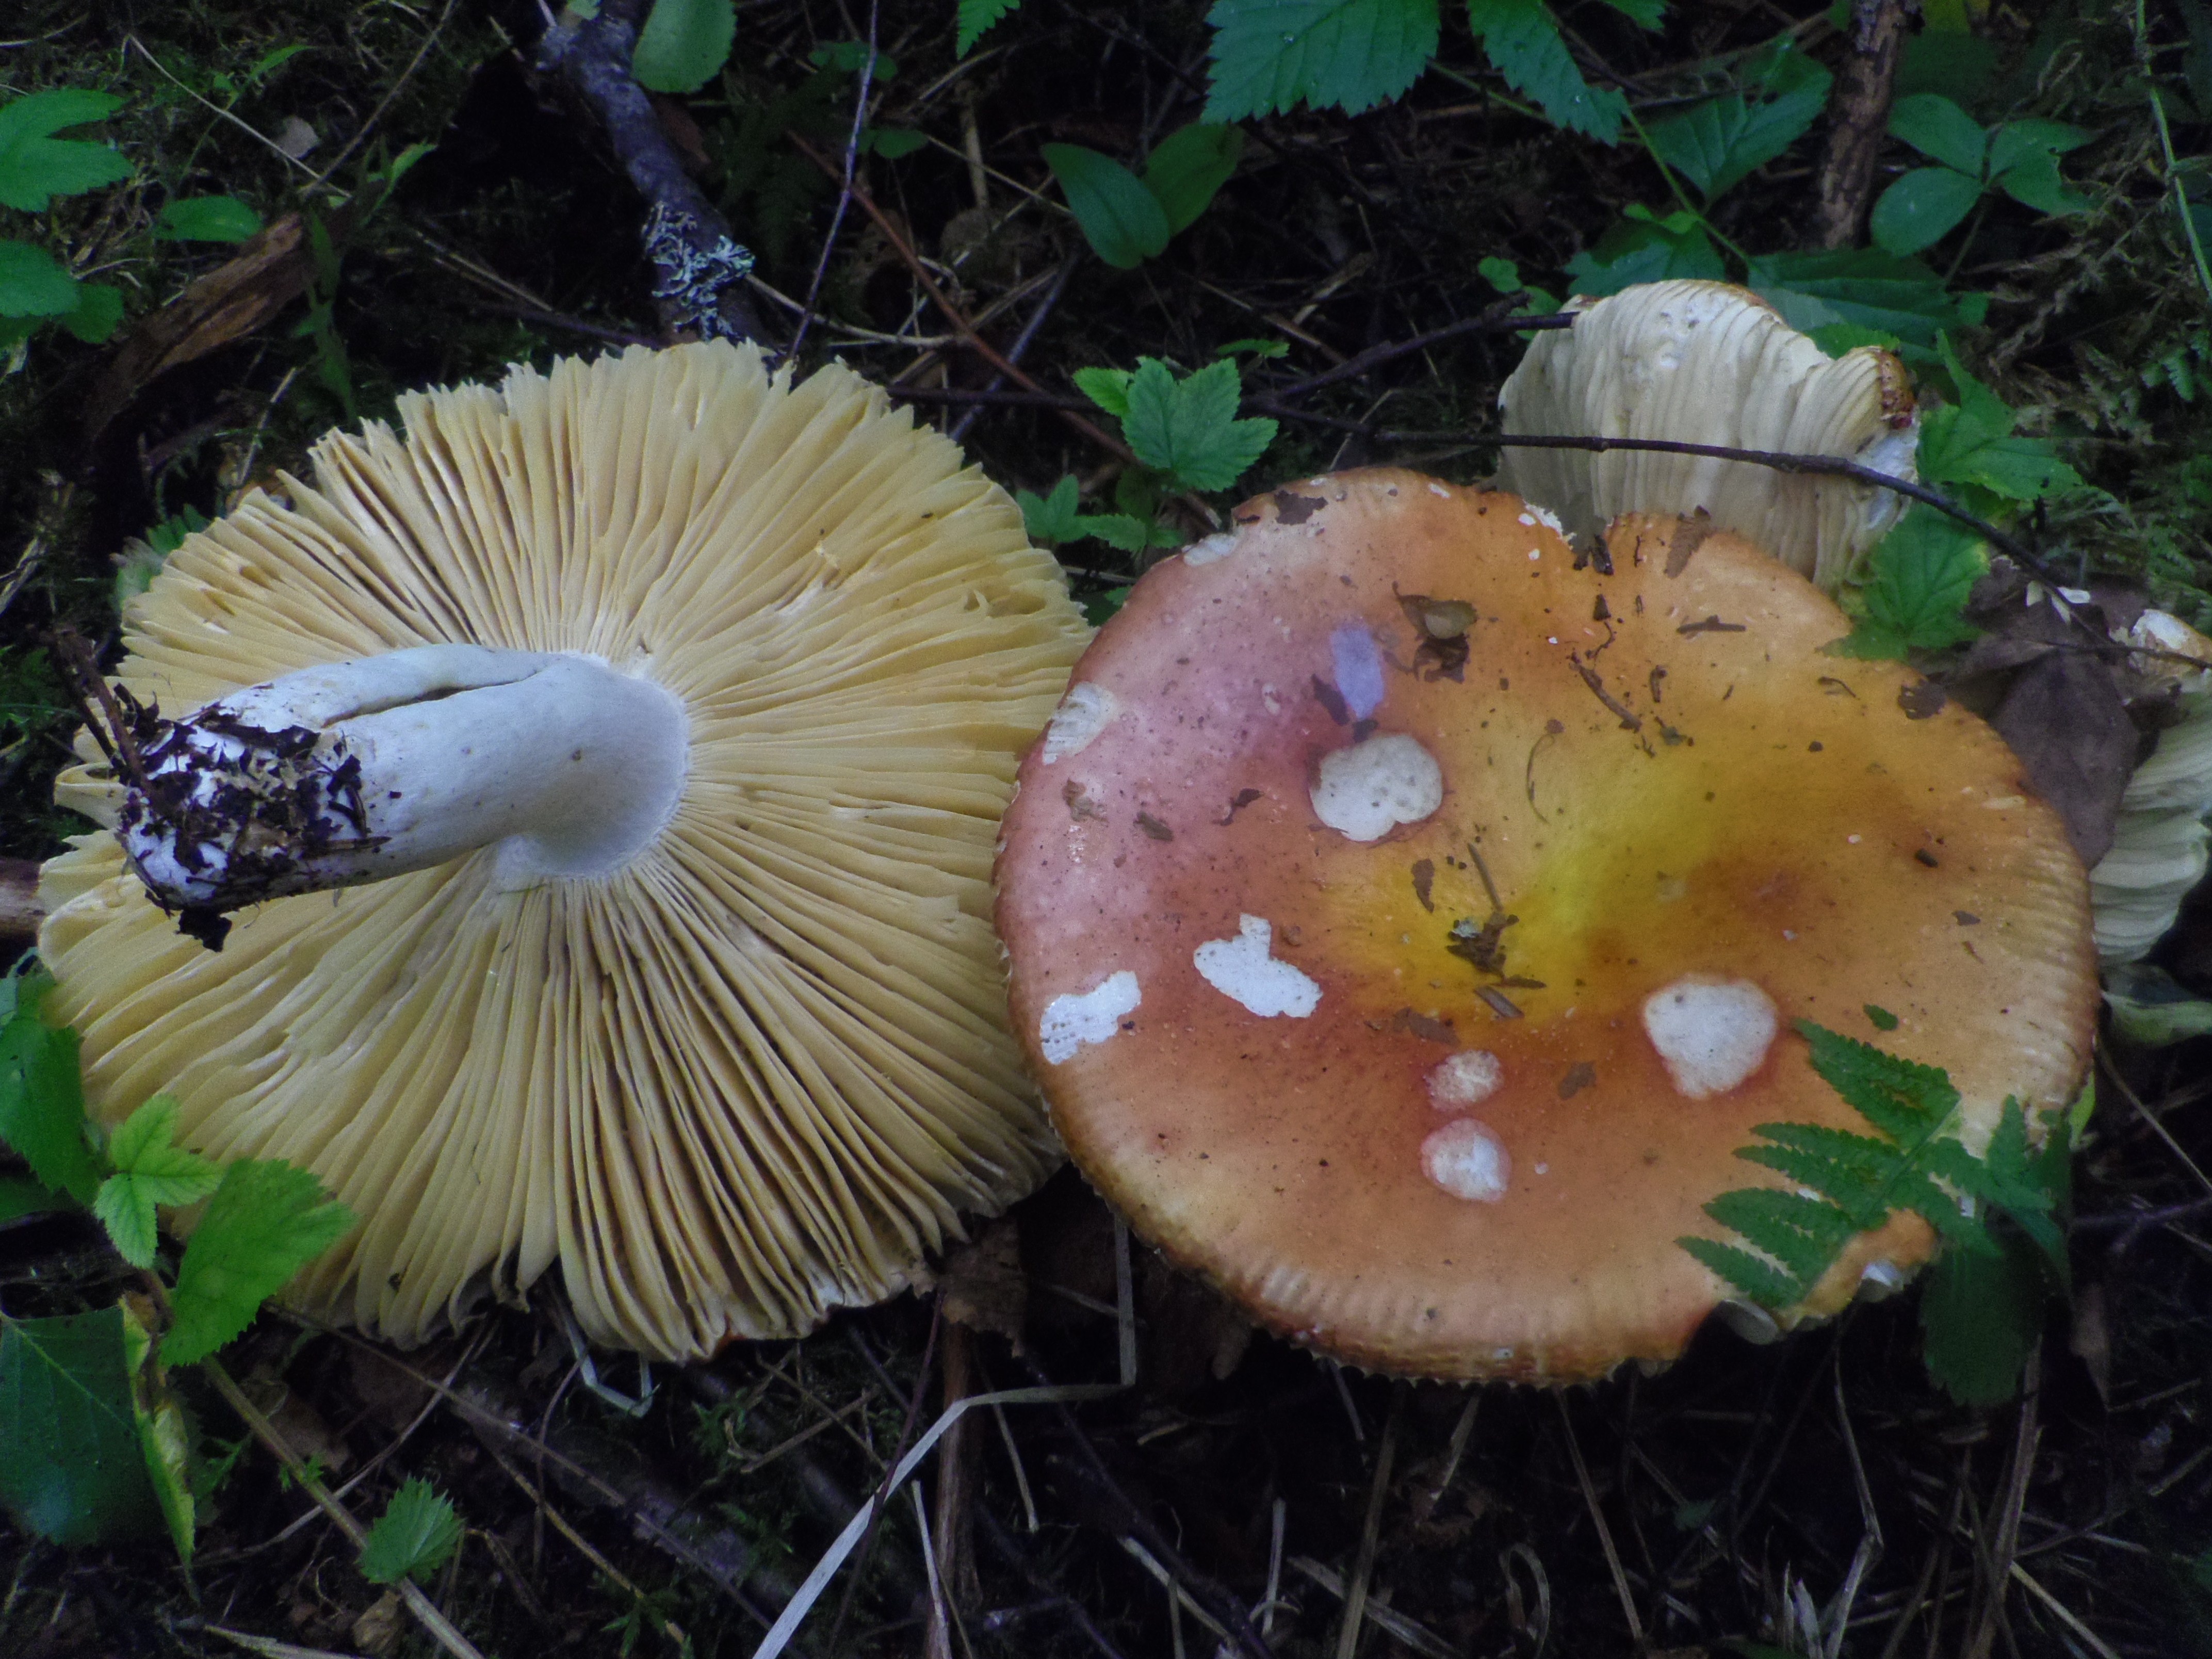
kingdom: Fungi
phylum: Basidiomycota
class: Agaricomycetes
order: Russulales
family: Russulaceae
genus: Russula
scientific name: Russula intermedia
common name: Intermediate brittlegill
